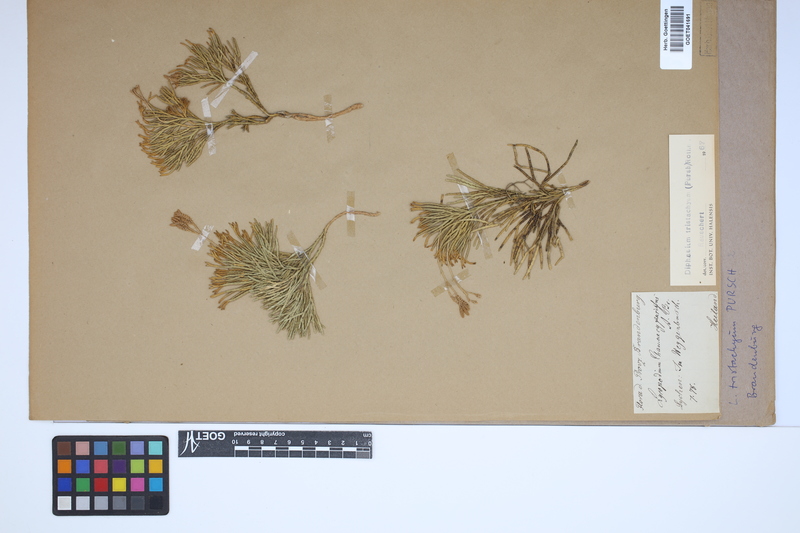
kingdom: Plantae
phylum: Tracheophyta
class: Lycopodiopsida
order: Lycopodiales
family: Lycopodiaceae
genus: Diphasiastrum
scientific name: Diphasiastrum tristachyum
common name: Blue ground-cedar
